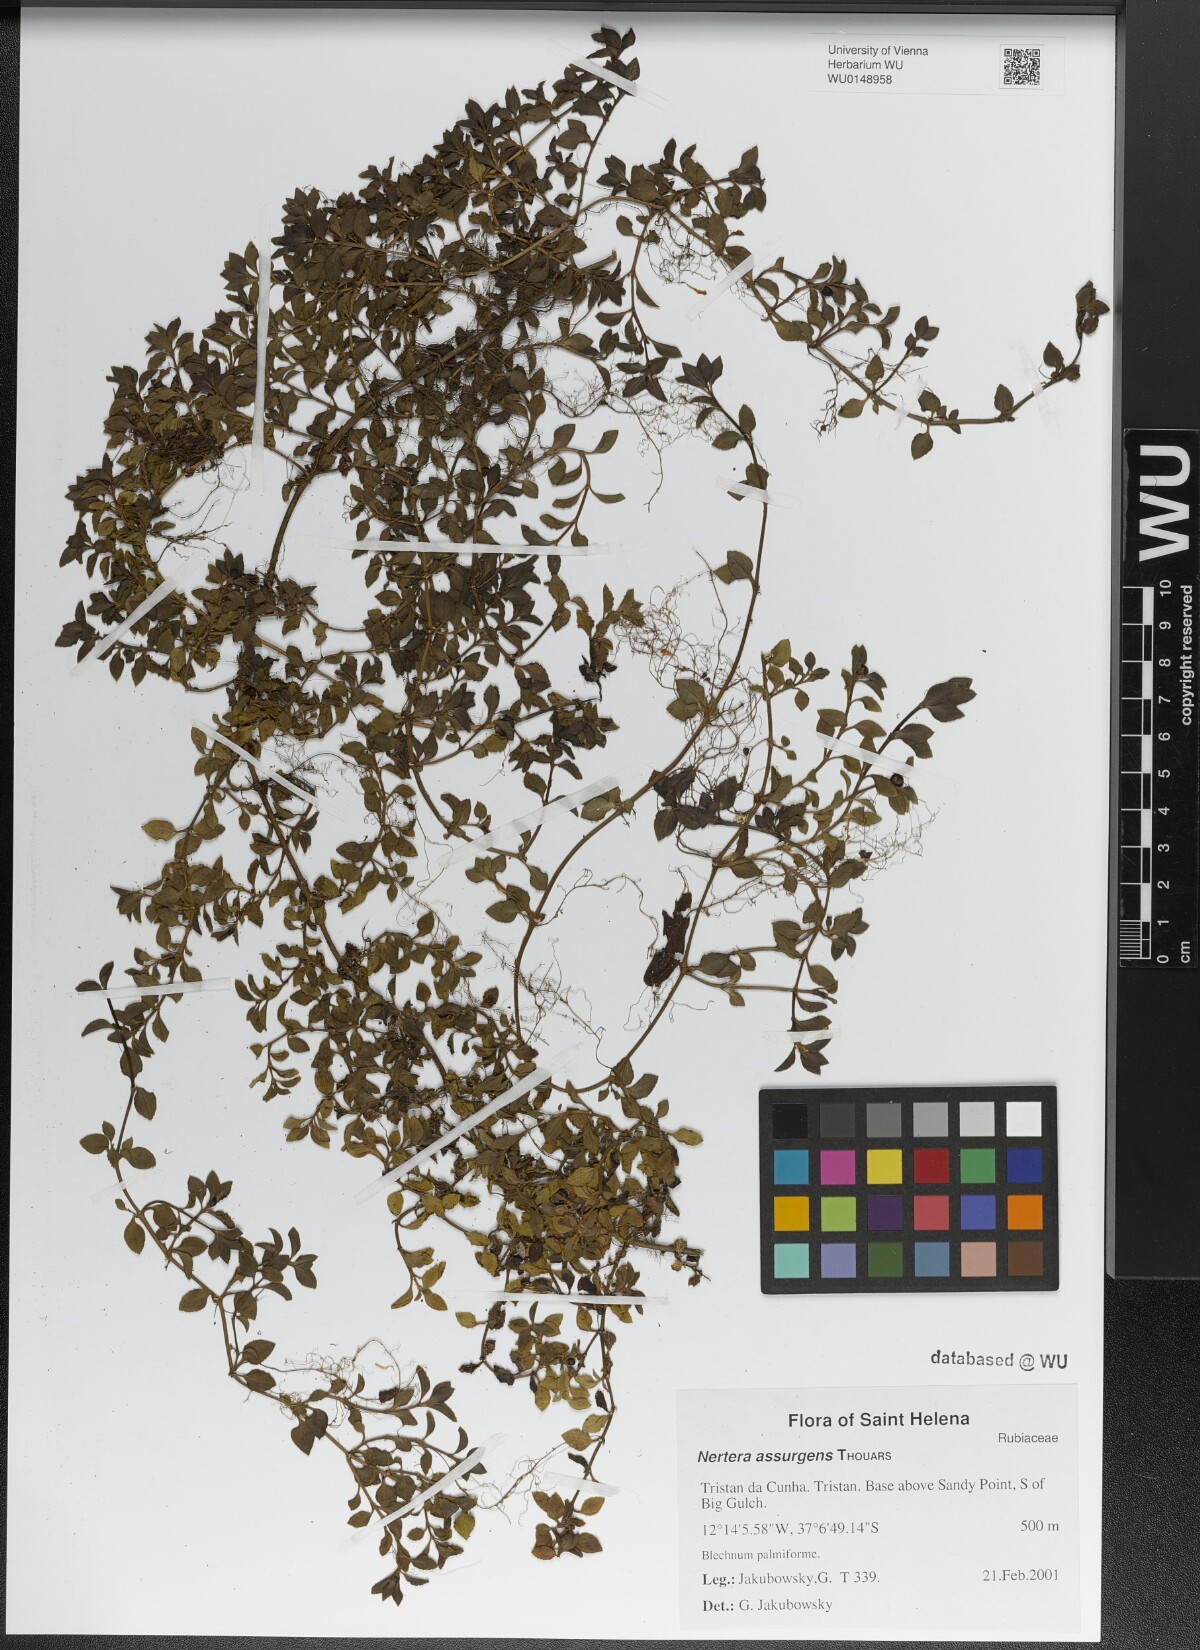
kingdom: Plantae
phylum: Tracheophyta
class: Magnoliopsida
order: Gentianales
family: Rubiaceae
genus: Nertera
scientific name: Nertera granadensis
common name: Beadplant
